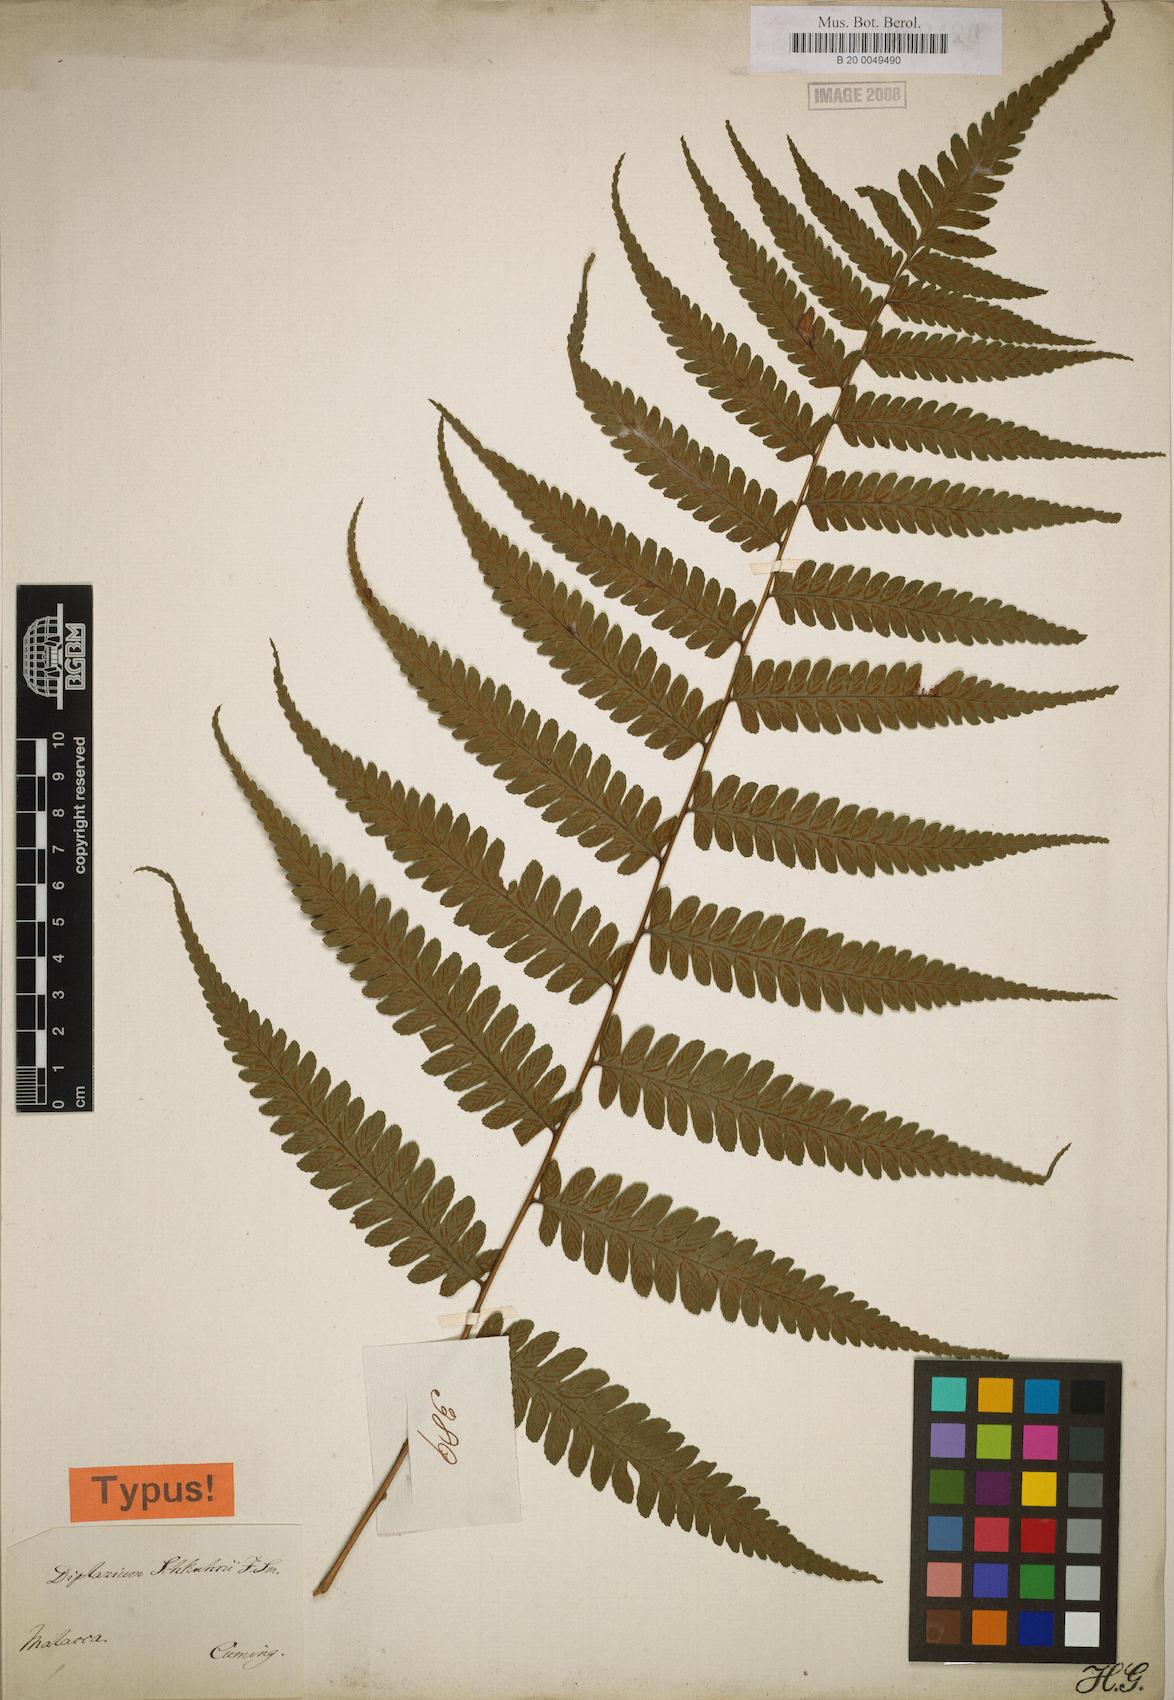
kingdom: Plantae
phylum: Tracheophyta
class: Polypodiopsida
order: Polypodiales
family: Athyriaceae
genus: Diplazium
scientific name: Diplazium schkuhrii
